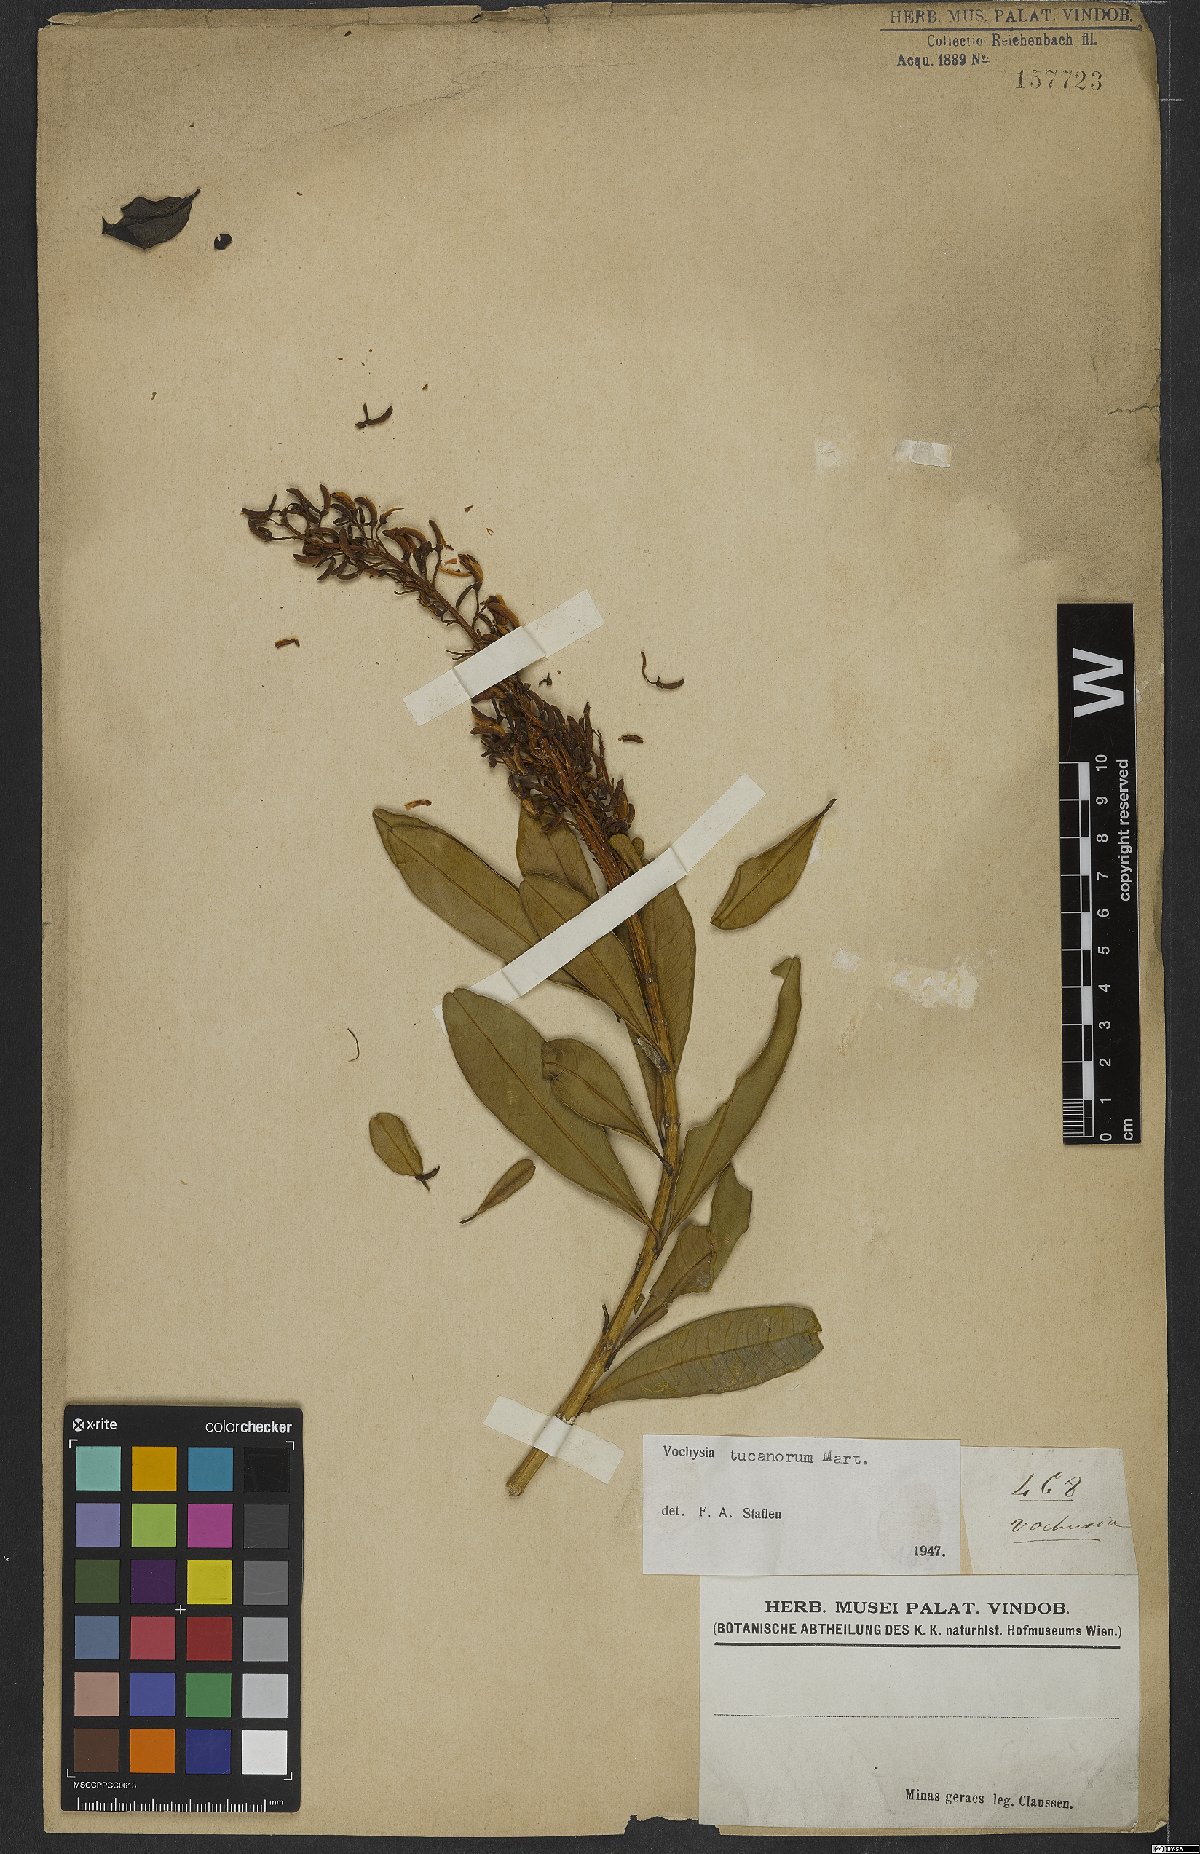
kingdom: Plantae
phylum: Tracheophyta
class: Magnoliopsida
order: Myrtales
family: Vochysiaceae
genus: Vochysia
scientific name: Vochysia tucanorum
